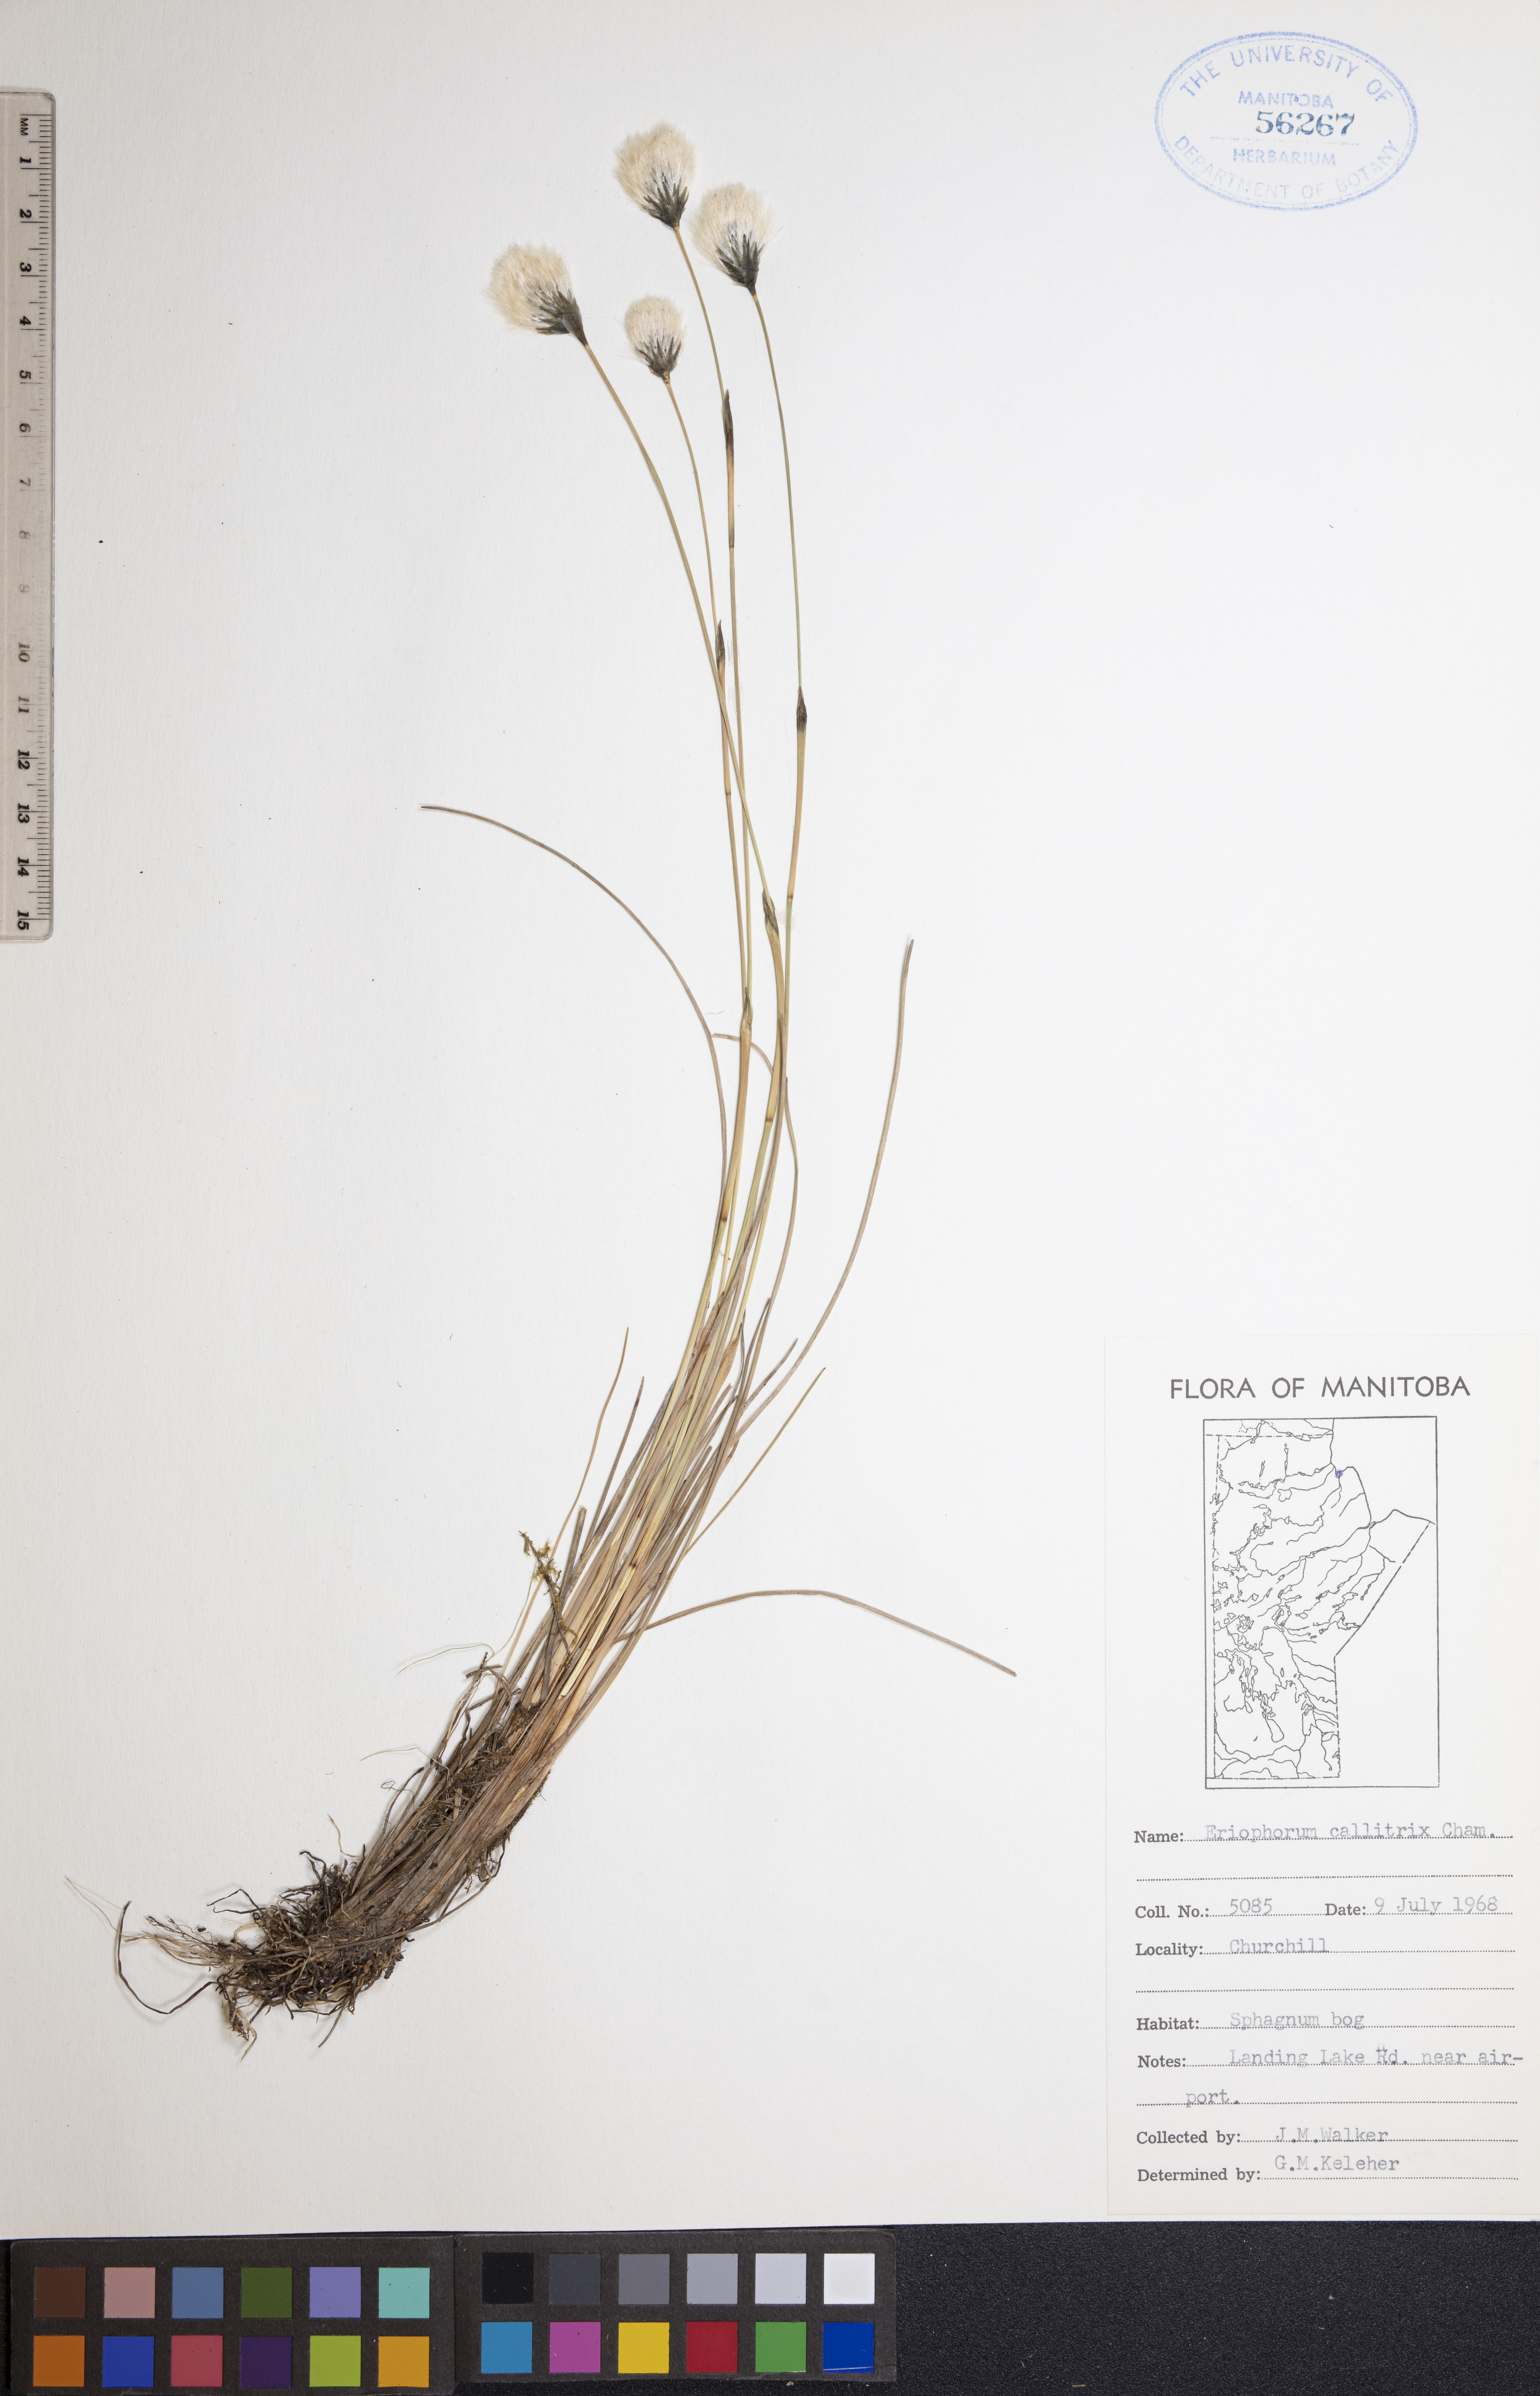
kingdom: Plantae
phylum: Tracheophyta
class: Liliopsida
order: Poales
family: Cyperaceae
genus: Eriophorum
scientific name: Eriophorum callitrix
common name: Arctic cottongrass
